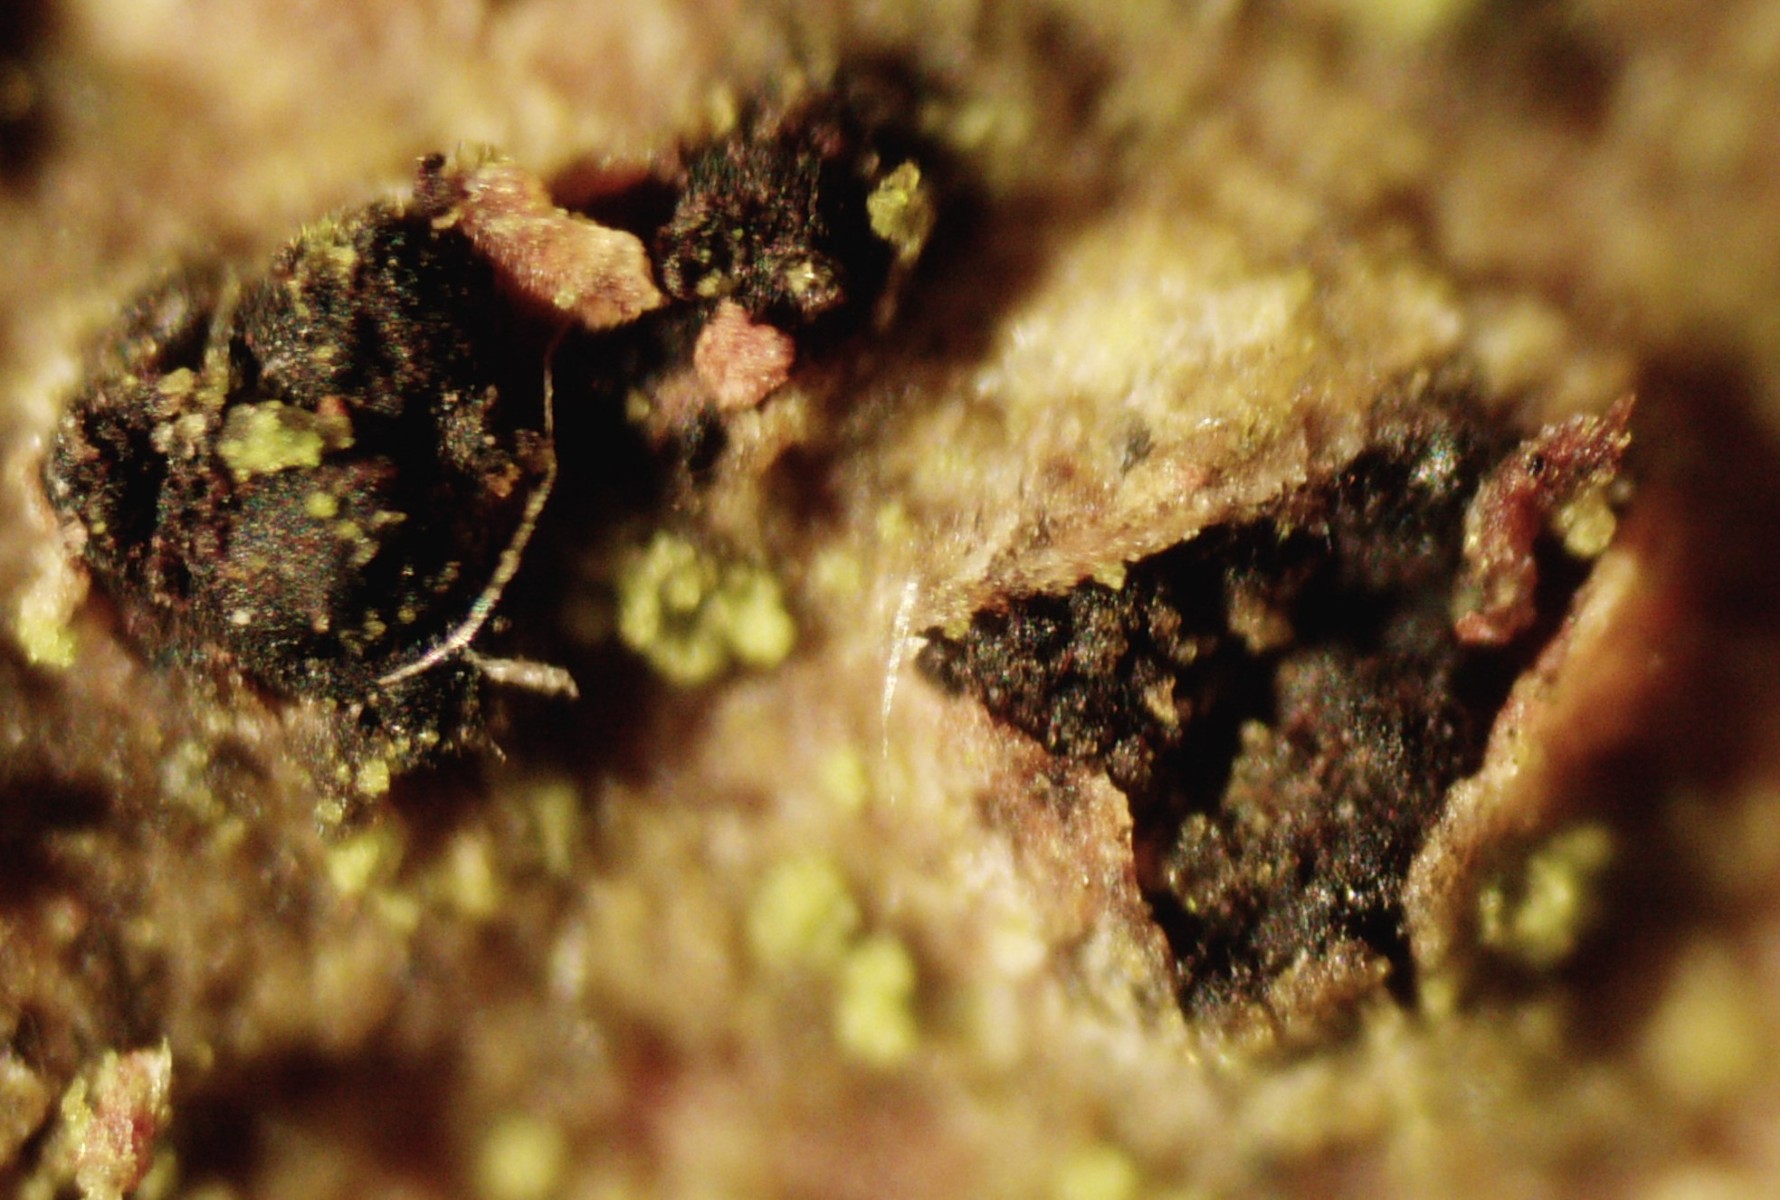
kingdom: Fungi
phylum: Ascomycota
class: Dothideomycetes
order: Pleosporales
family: Melanommataceae
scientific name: Melanommataceae
